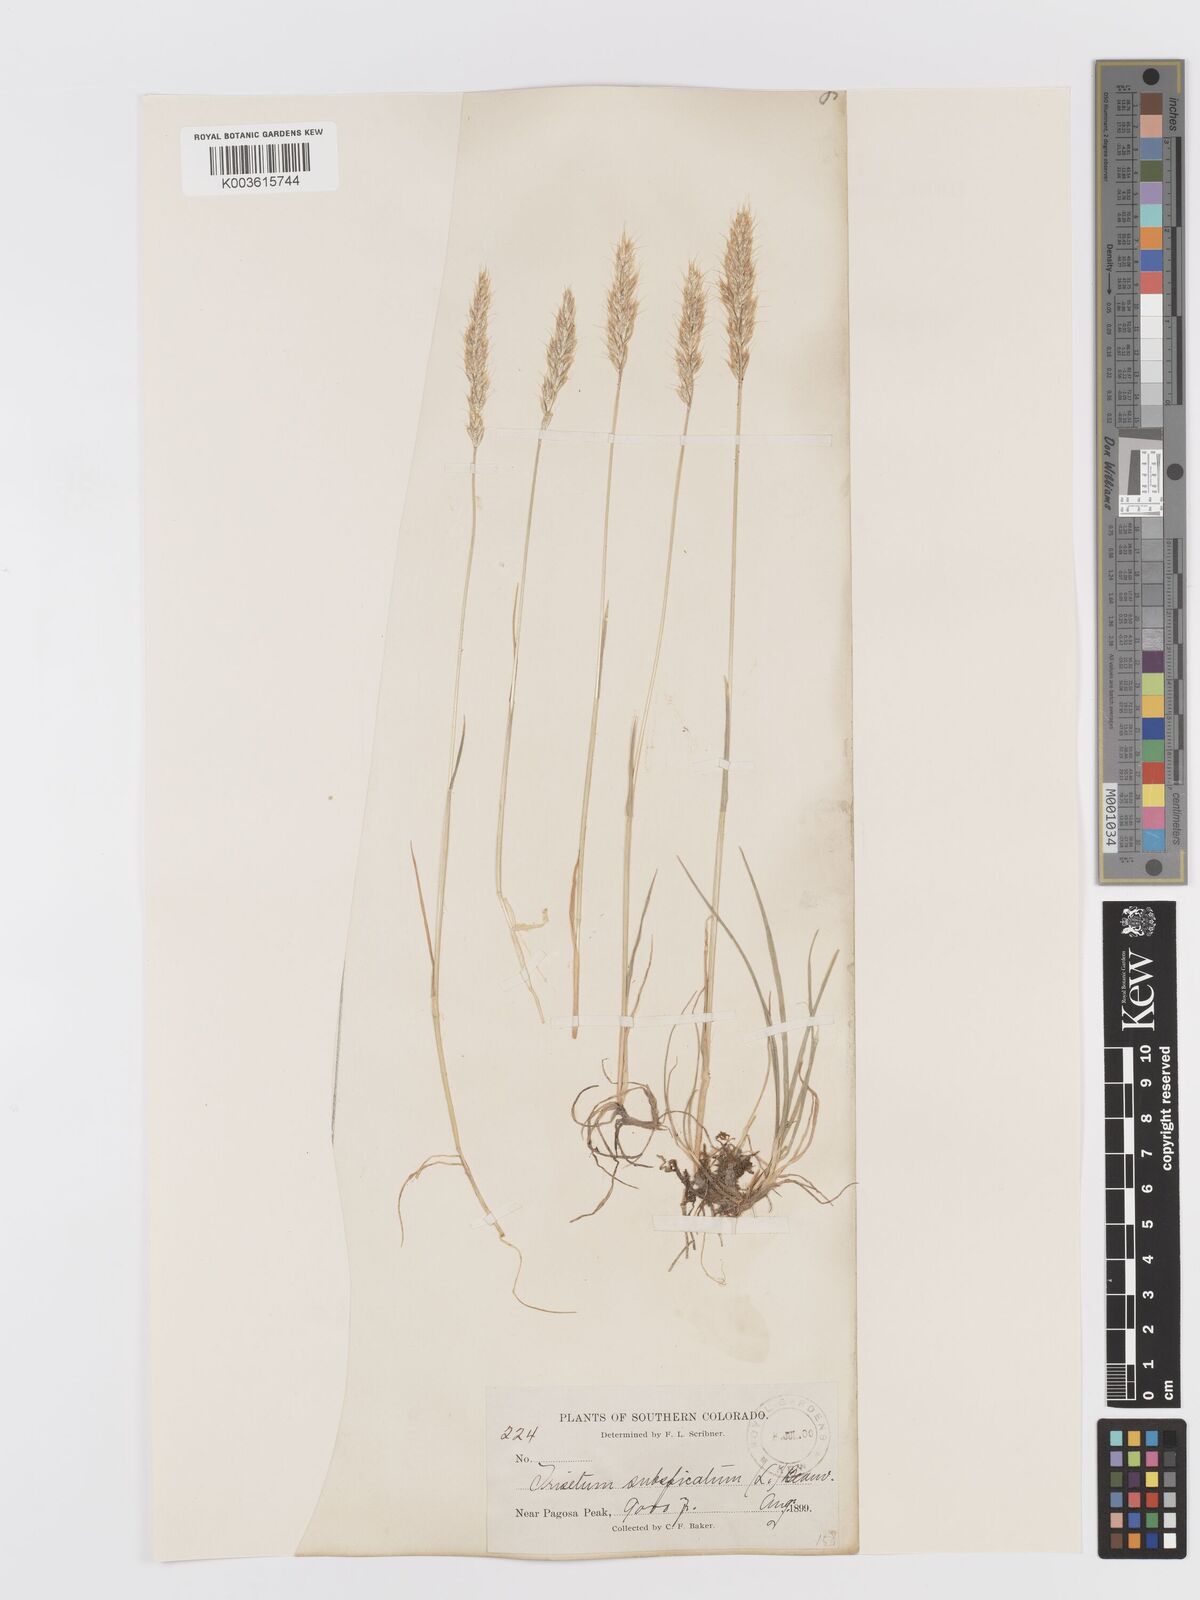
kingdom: Plantae
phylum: Tracheophyta
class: Liliopsida
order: Poales
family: Poaceae
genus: Koeleria
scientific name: Koeleria spicata
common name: Mountain trisetum
